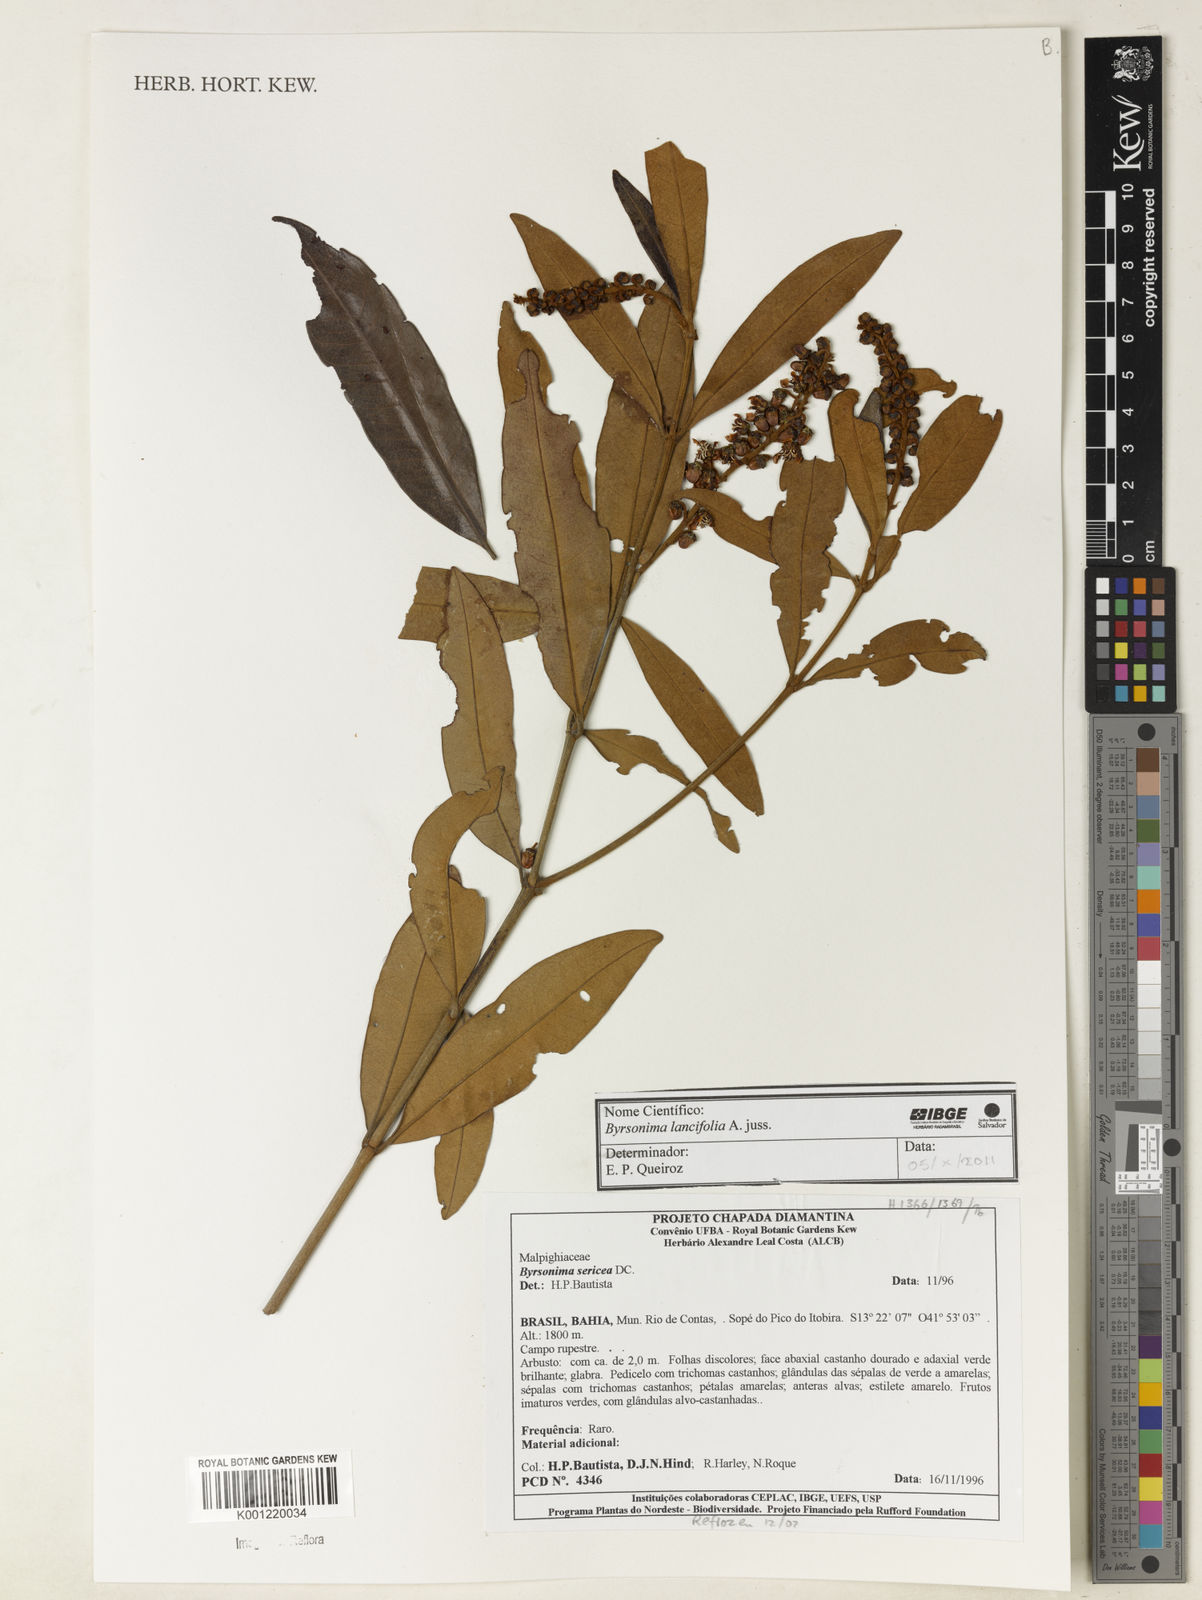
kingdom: Plantae
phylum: Tracheophyta
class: Magnoliopsida
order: Malpighiales
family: Malpighiaceae
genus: Byrsonima
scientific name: Byrsonima lancifolia
